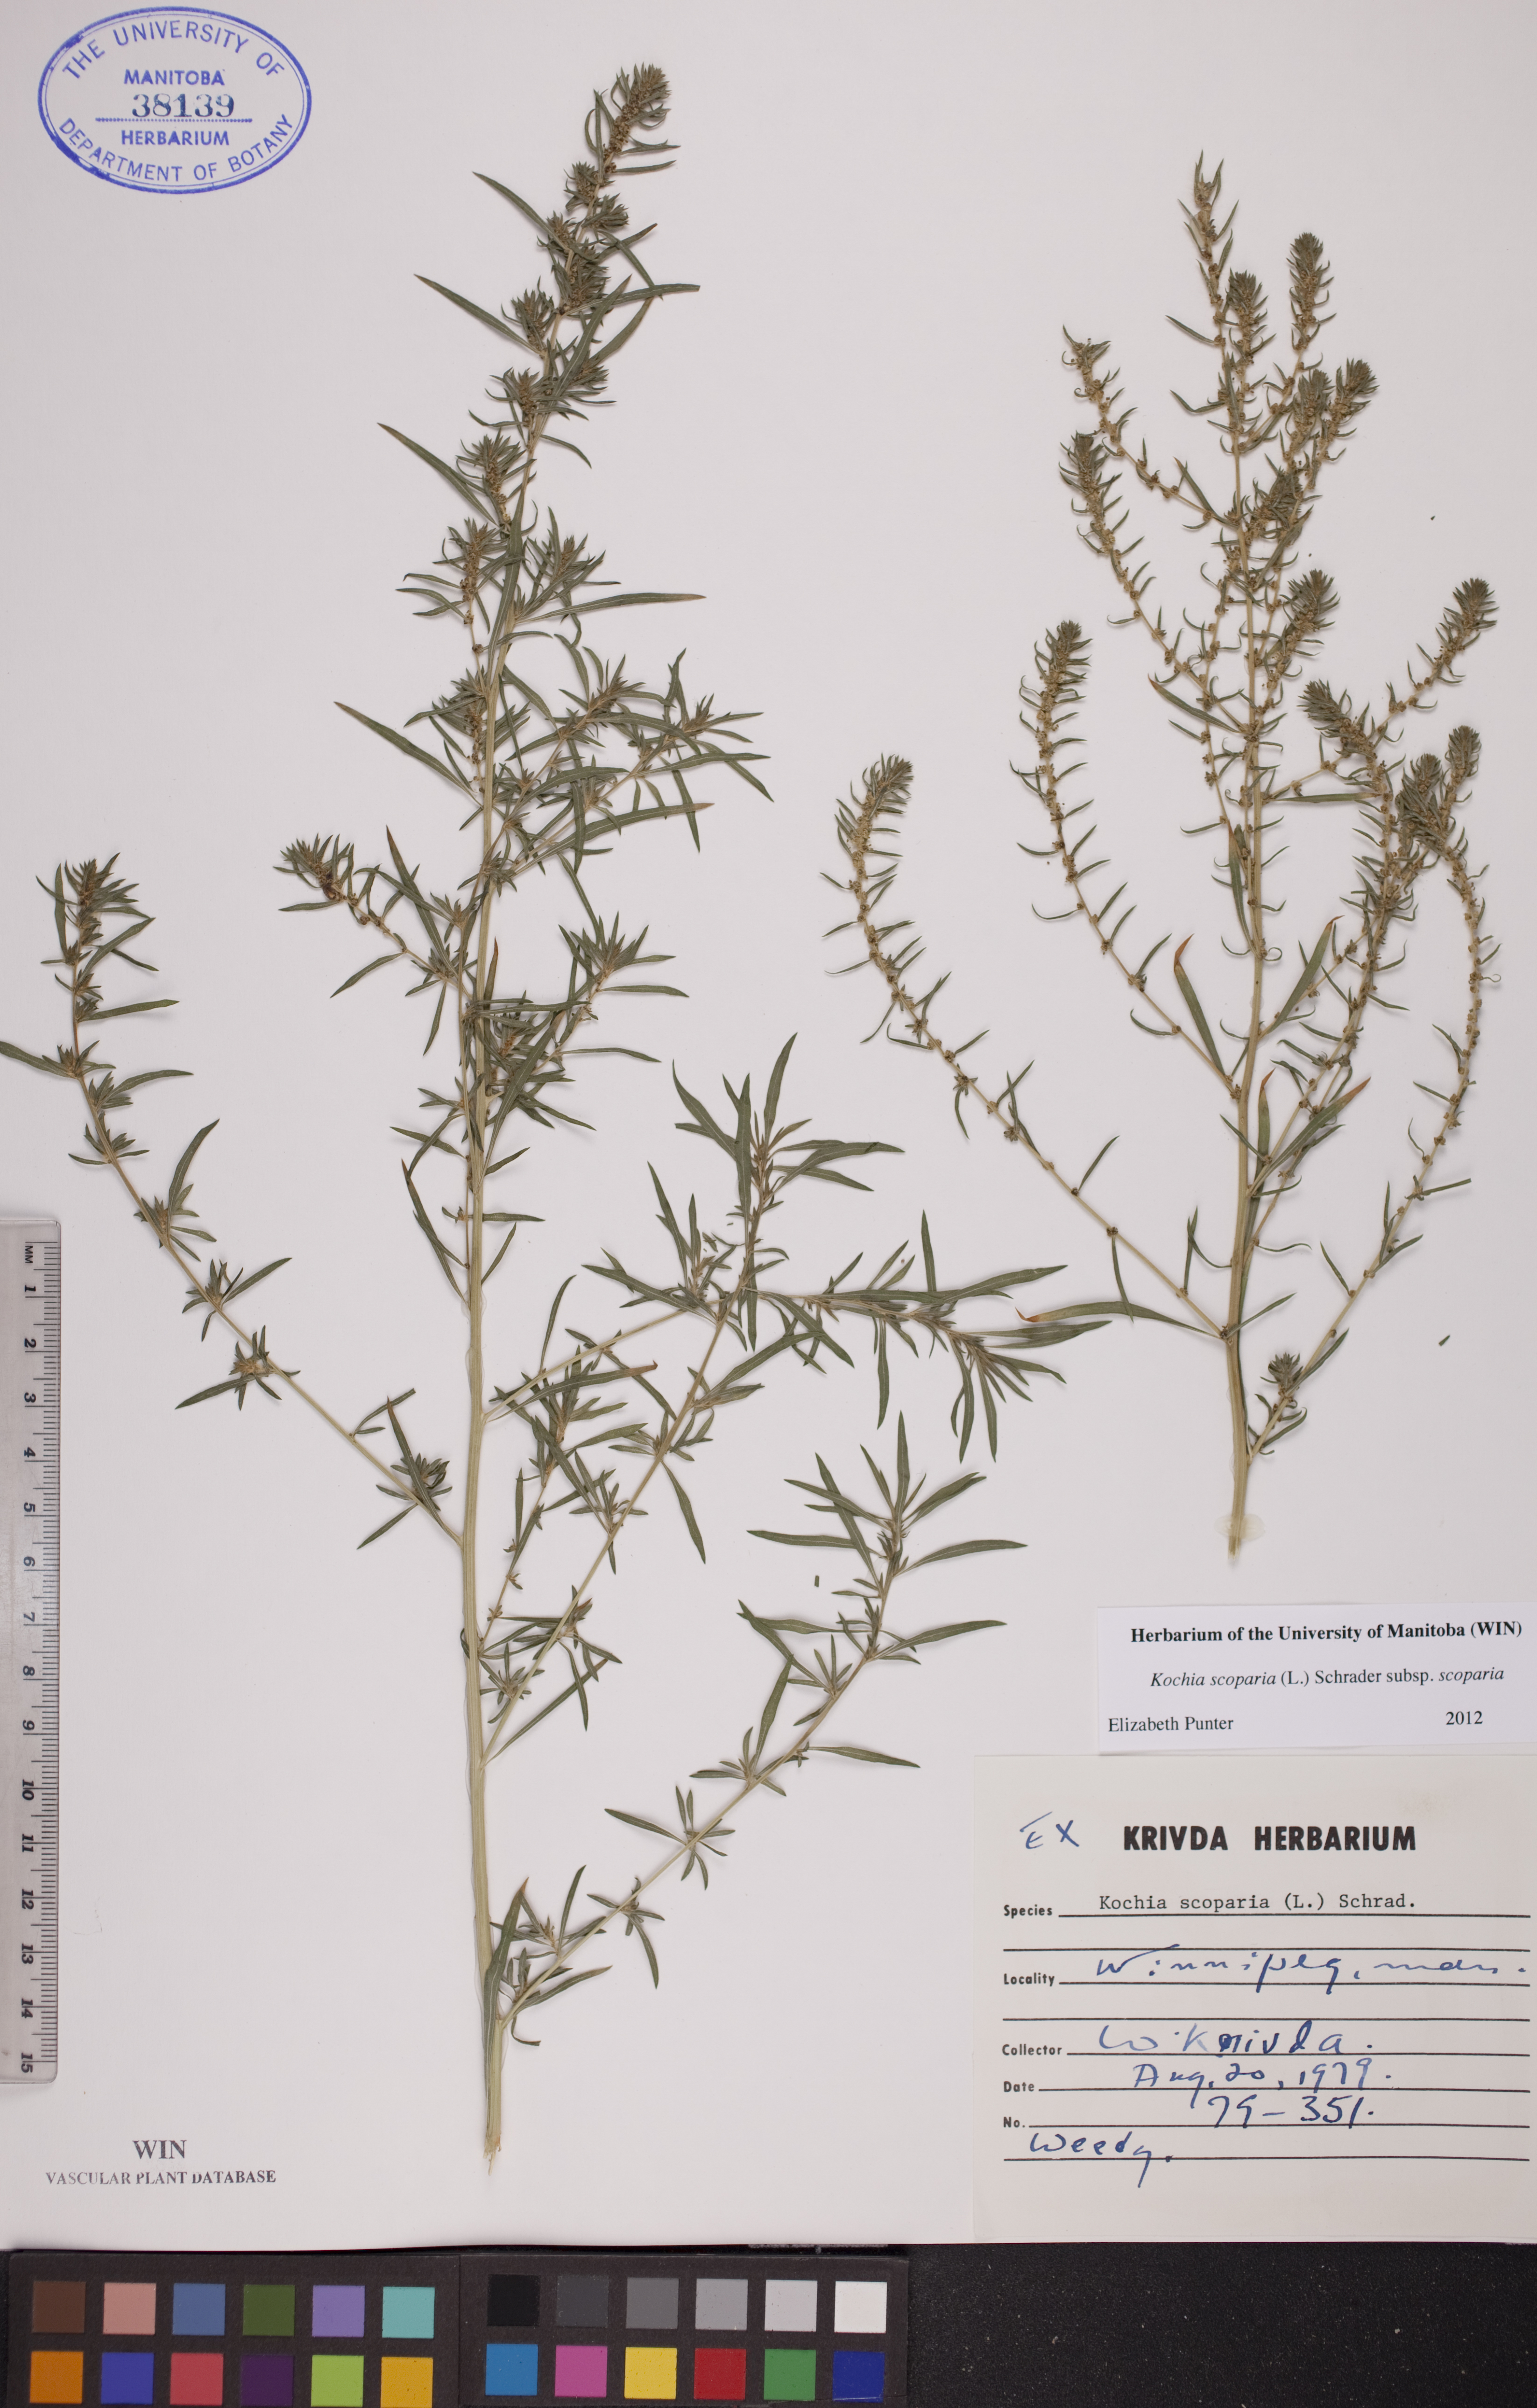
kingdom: Plantae
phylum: Tracheophyta
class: Magnoliopsida
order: Caryophyllales
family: Amaranthaceae
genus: Bassia
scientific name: Bassia scoparia
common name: Belvedere
